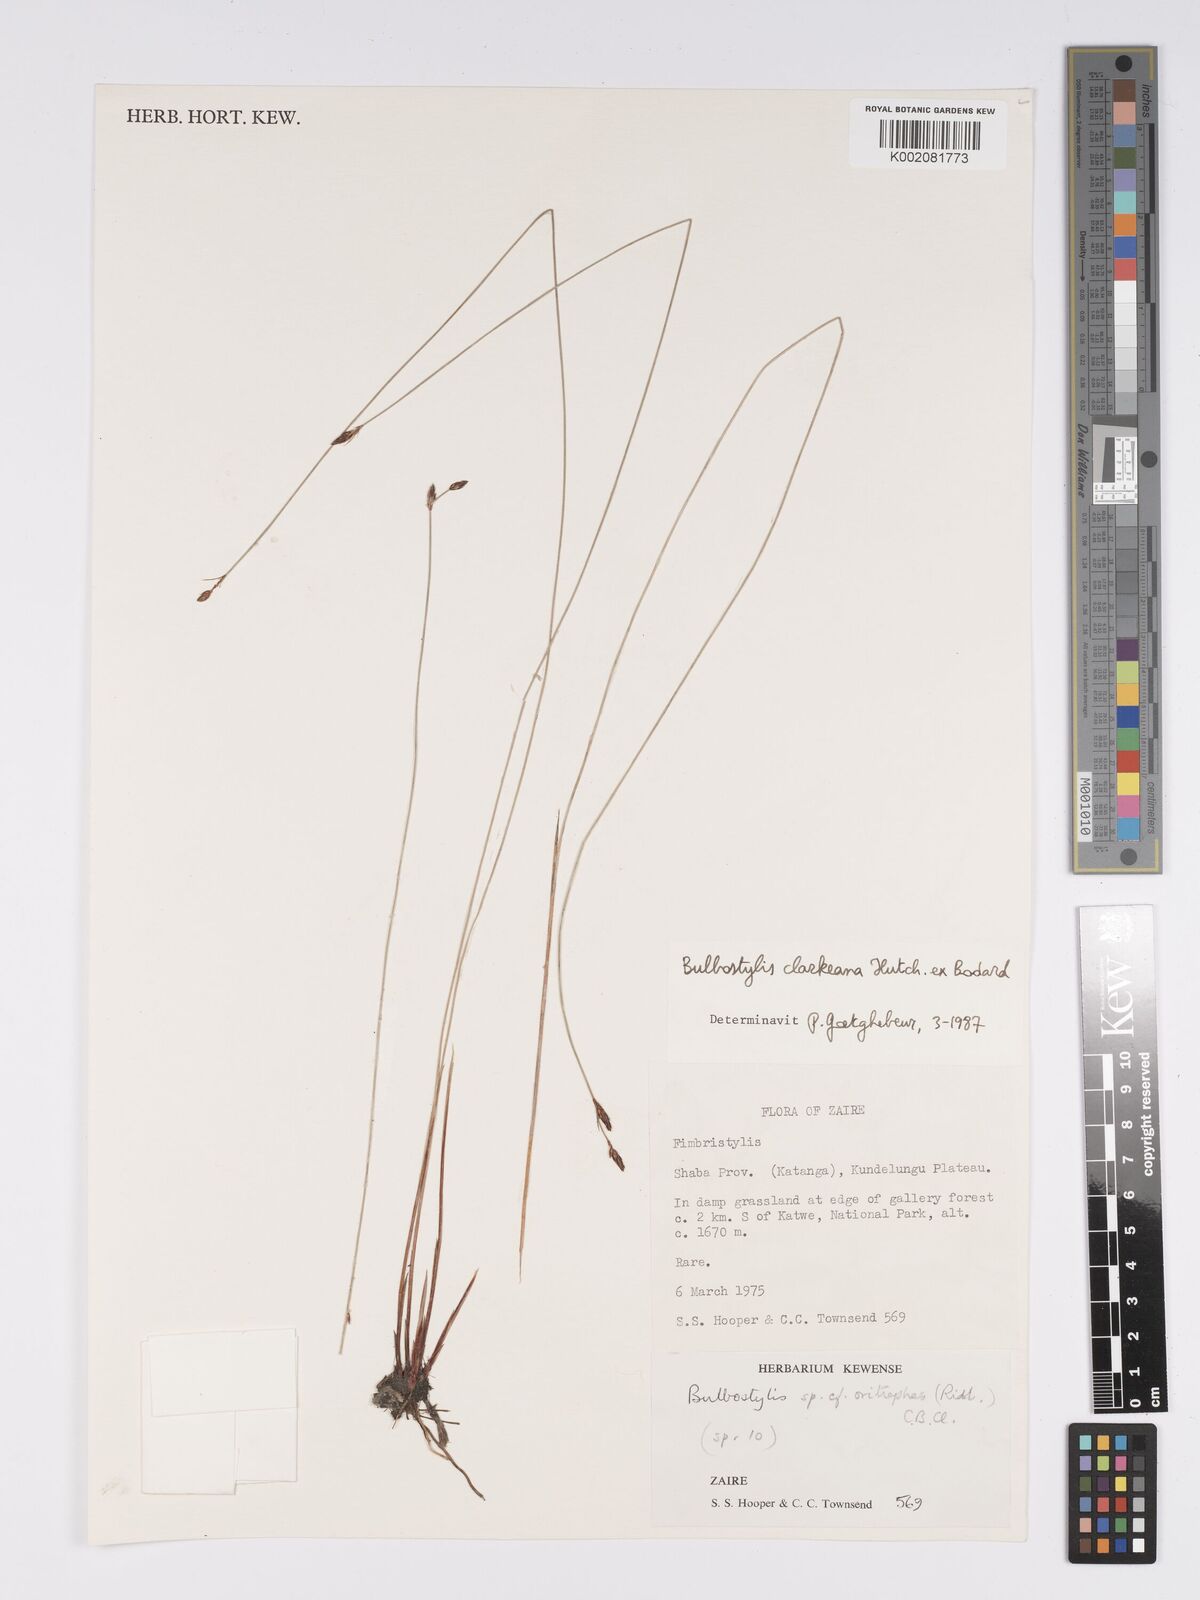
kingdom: Plantae
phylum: Tracheophyta
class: Liliopsida
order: Poales
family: Cyperaceae
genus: Bulbostylis
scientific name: Bulbostylis oritrephes
